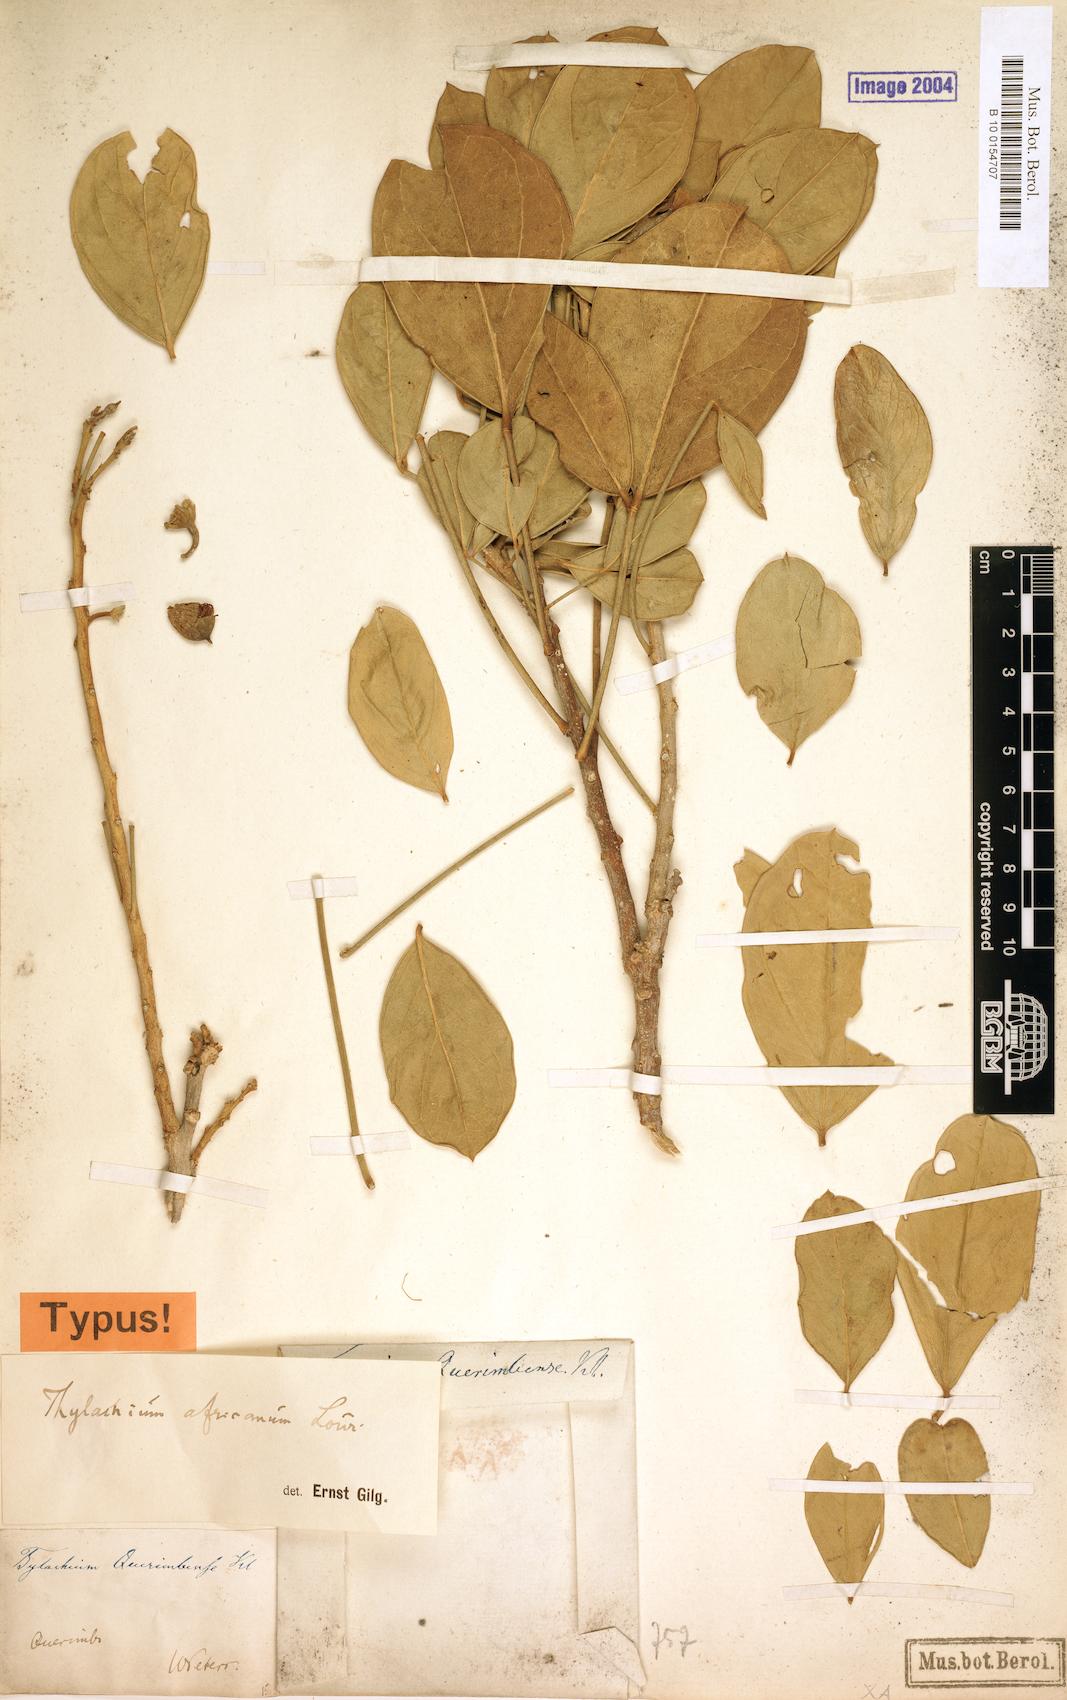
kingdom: Plantae
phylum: Tracheophyta
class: Magnoliopsida
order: Brassicales
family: Capparaceae
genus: Thilachium
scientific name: Thilachium africanum
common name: Cucumber bush
